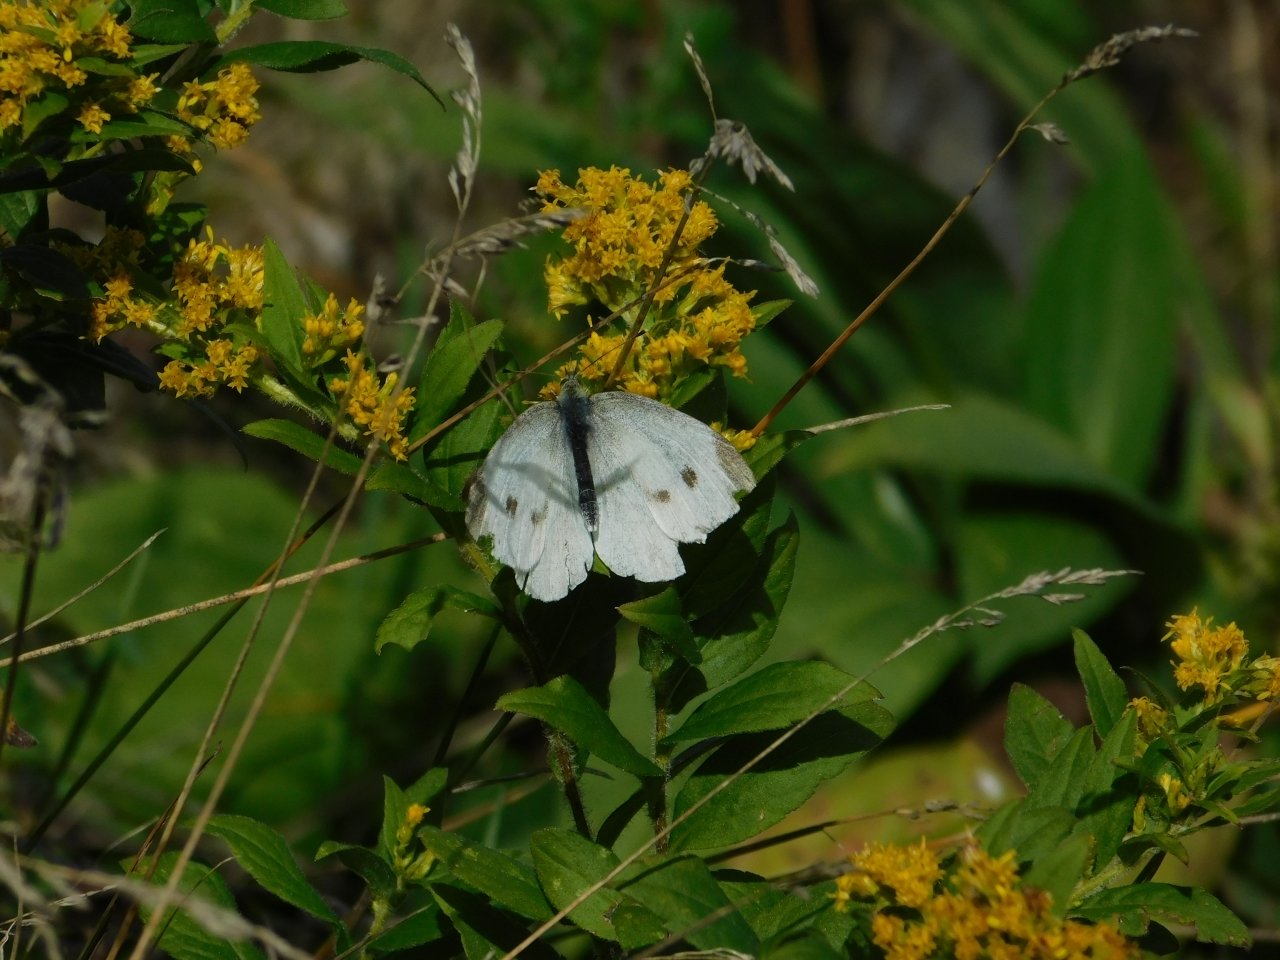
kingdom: Animalia
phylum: Arthropoda
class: Insecta
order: Lepidoptera
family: Pieridae
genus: Pieris
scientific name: Pieris rapae
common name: Cabbage White
